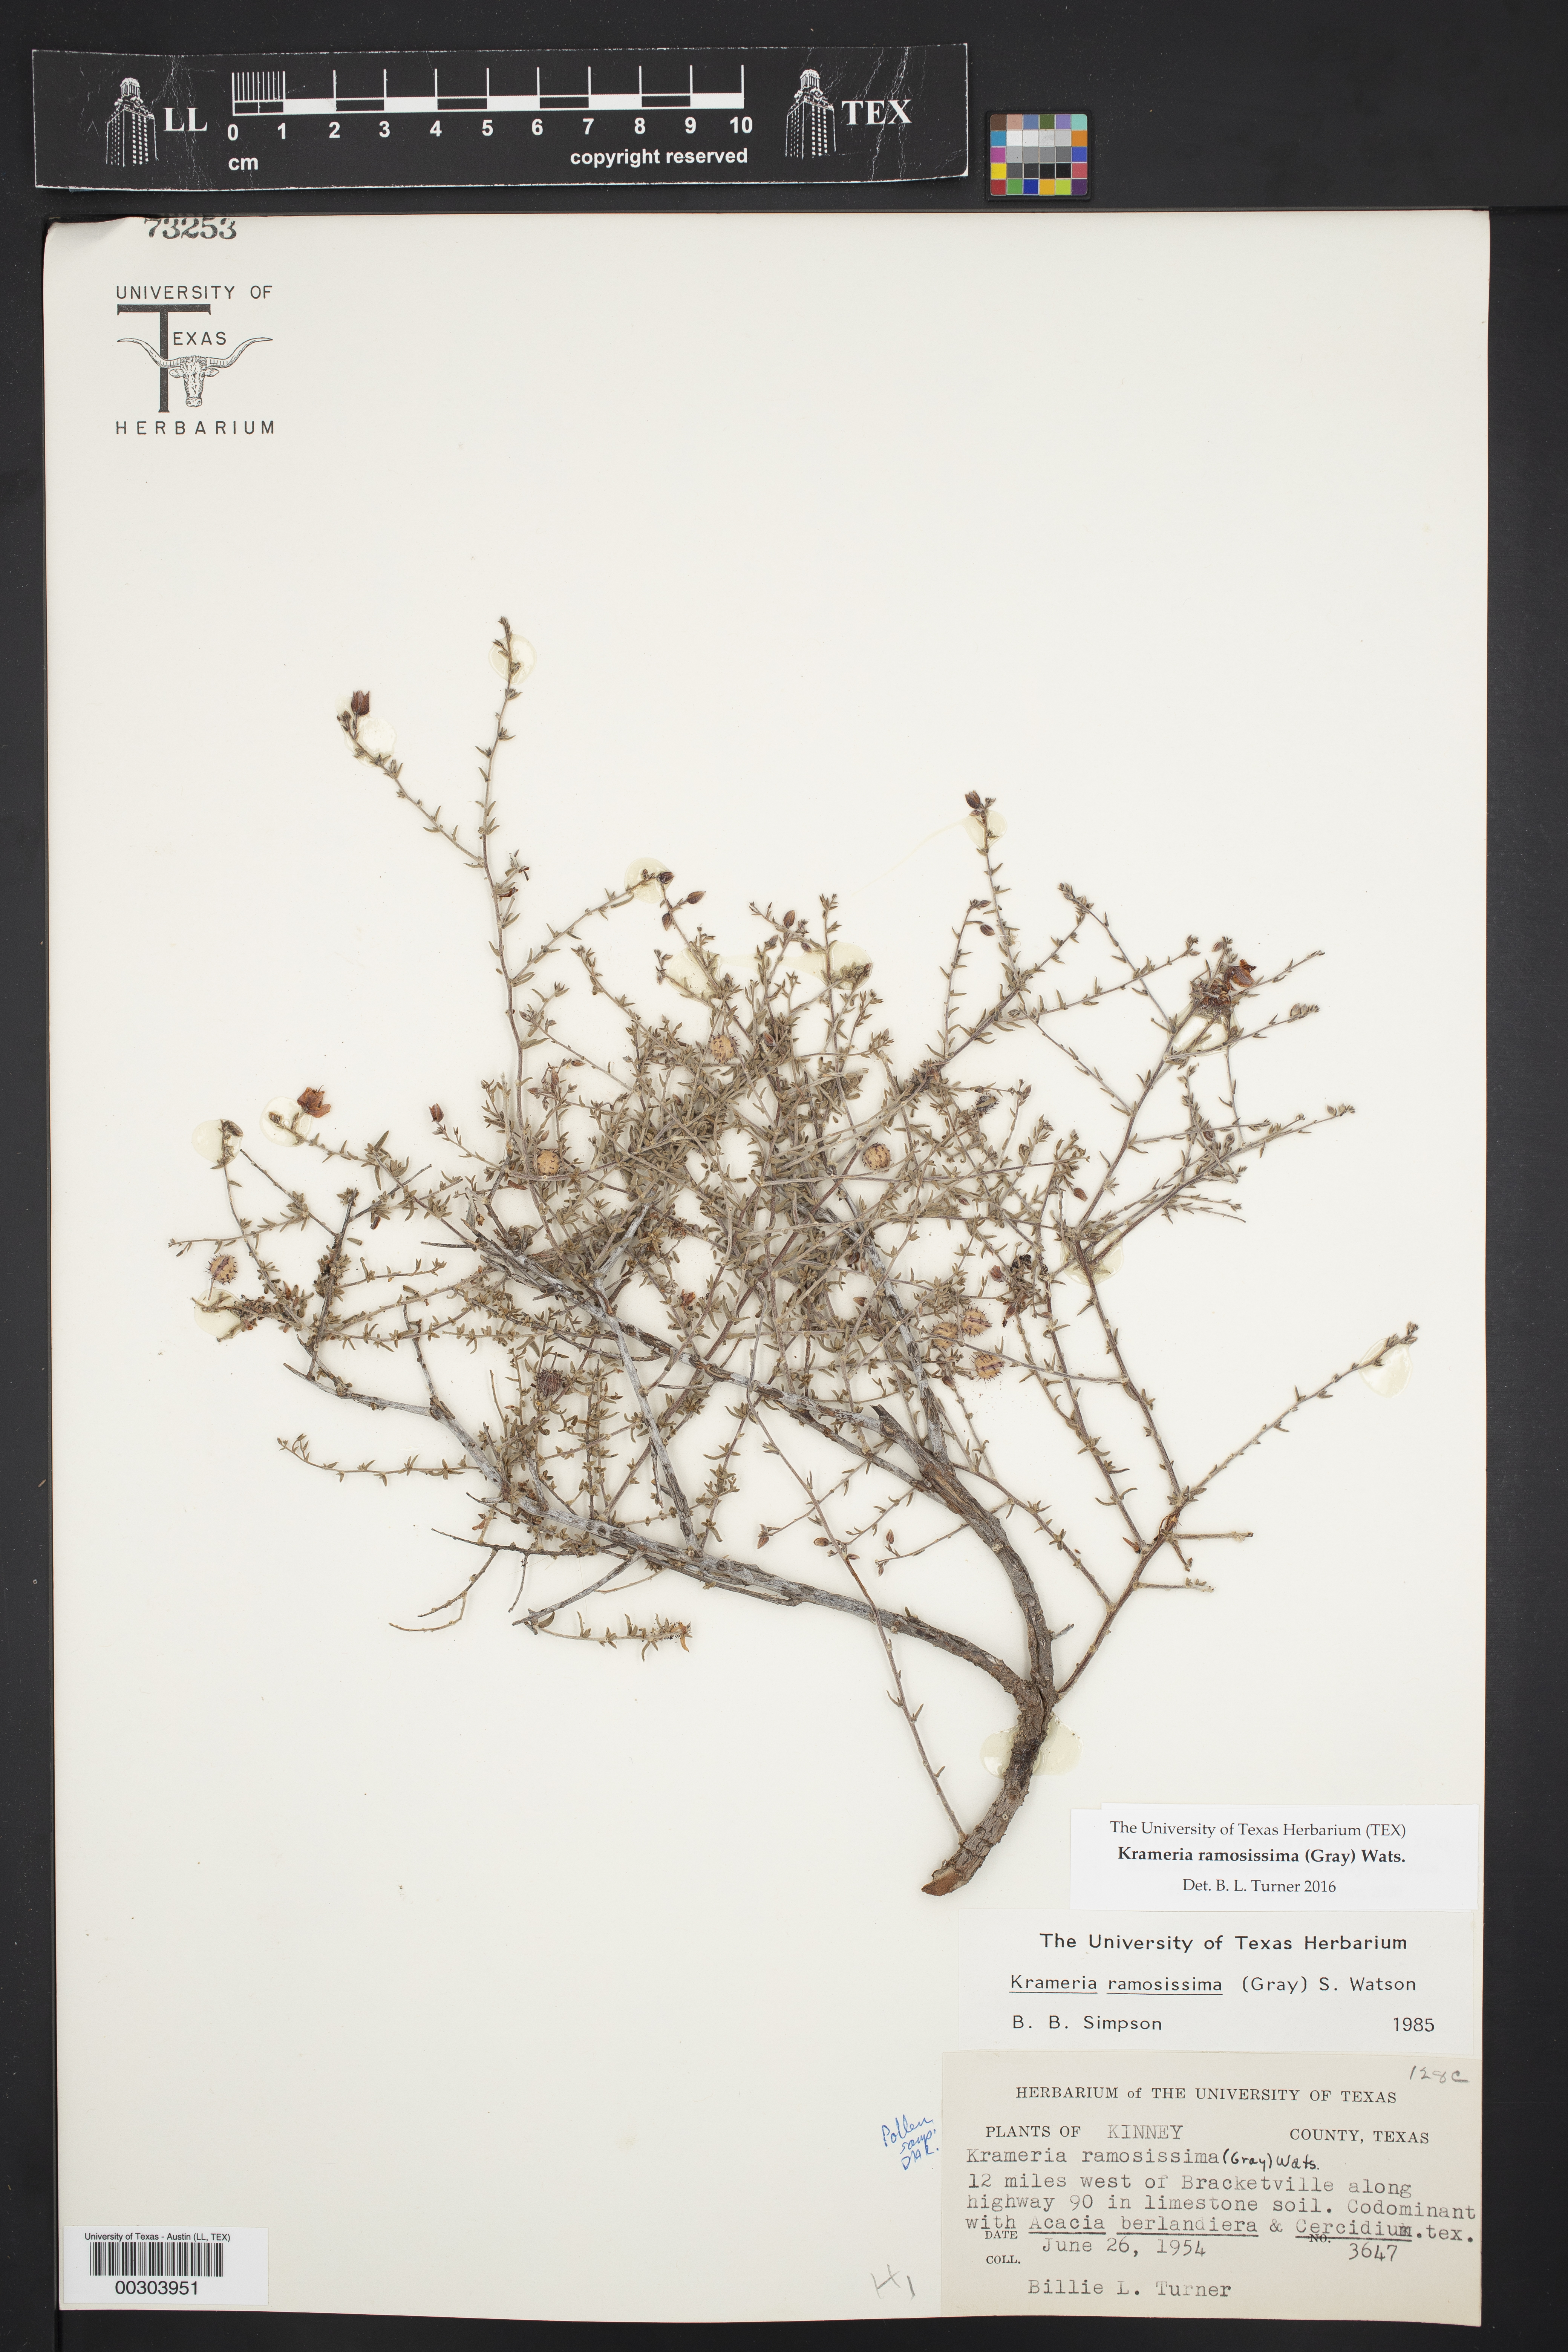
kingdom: Plantae
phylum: Tracheophyta
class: Magnoliopsida
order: Zygophyllales
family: Krameriaceae
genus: Krameria
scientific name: Krameria ramosissima
